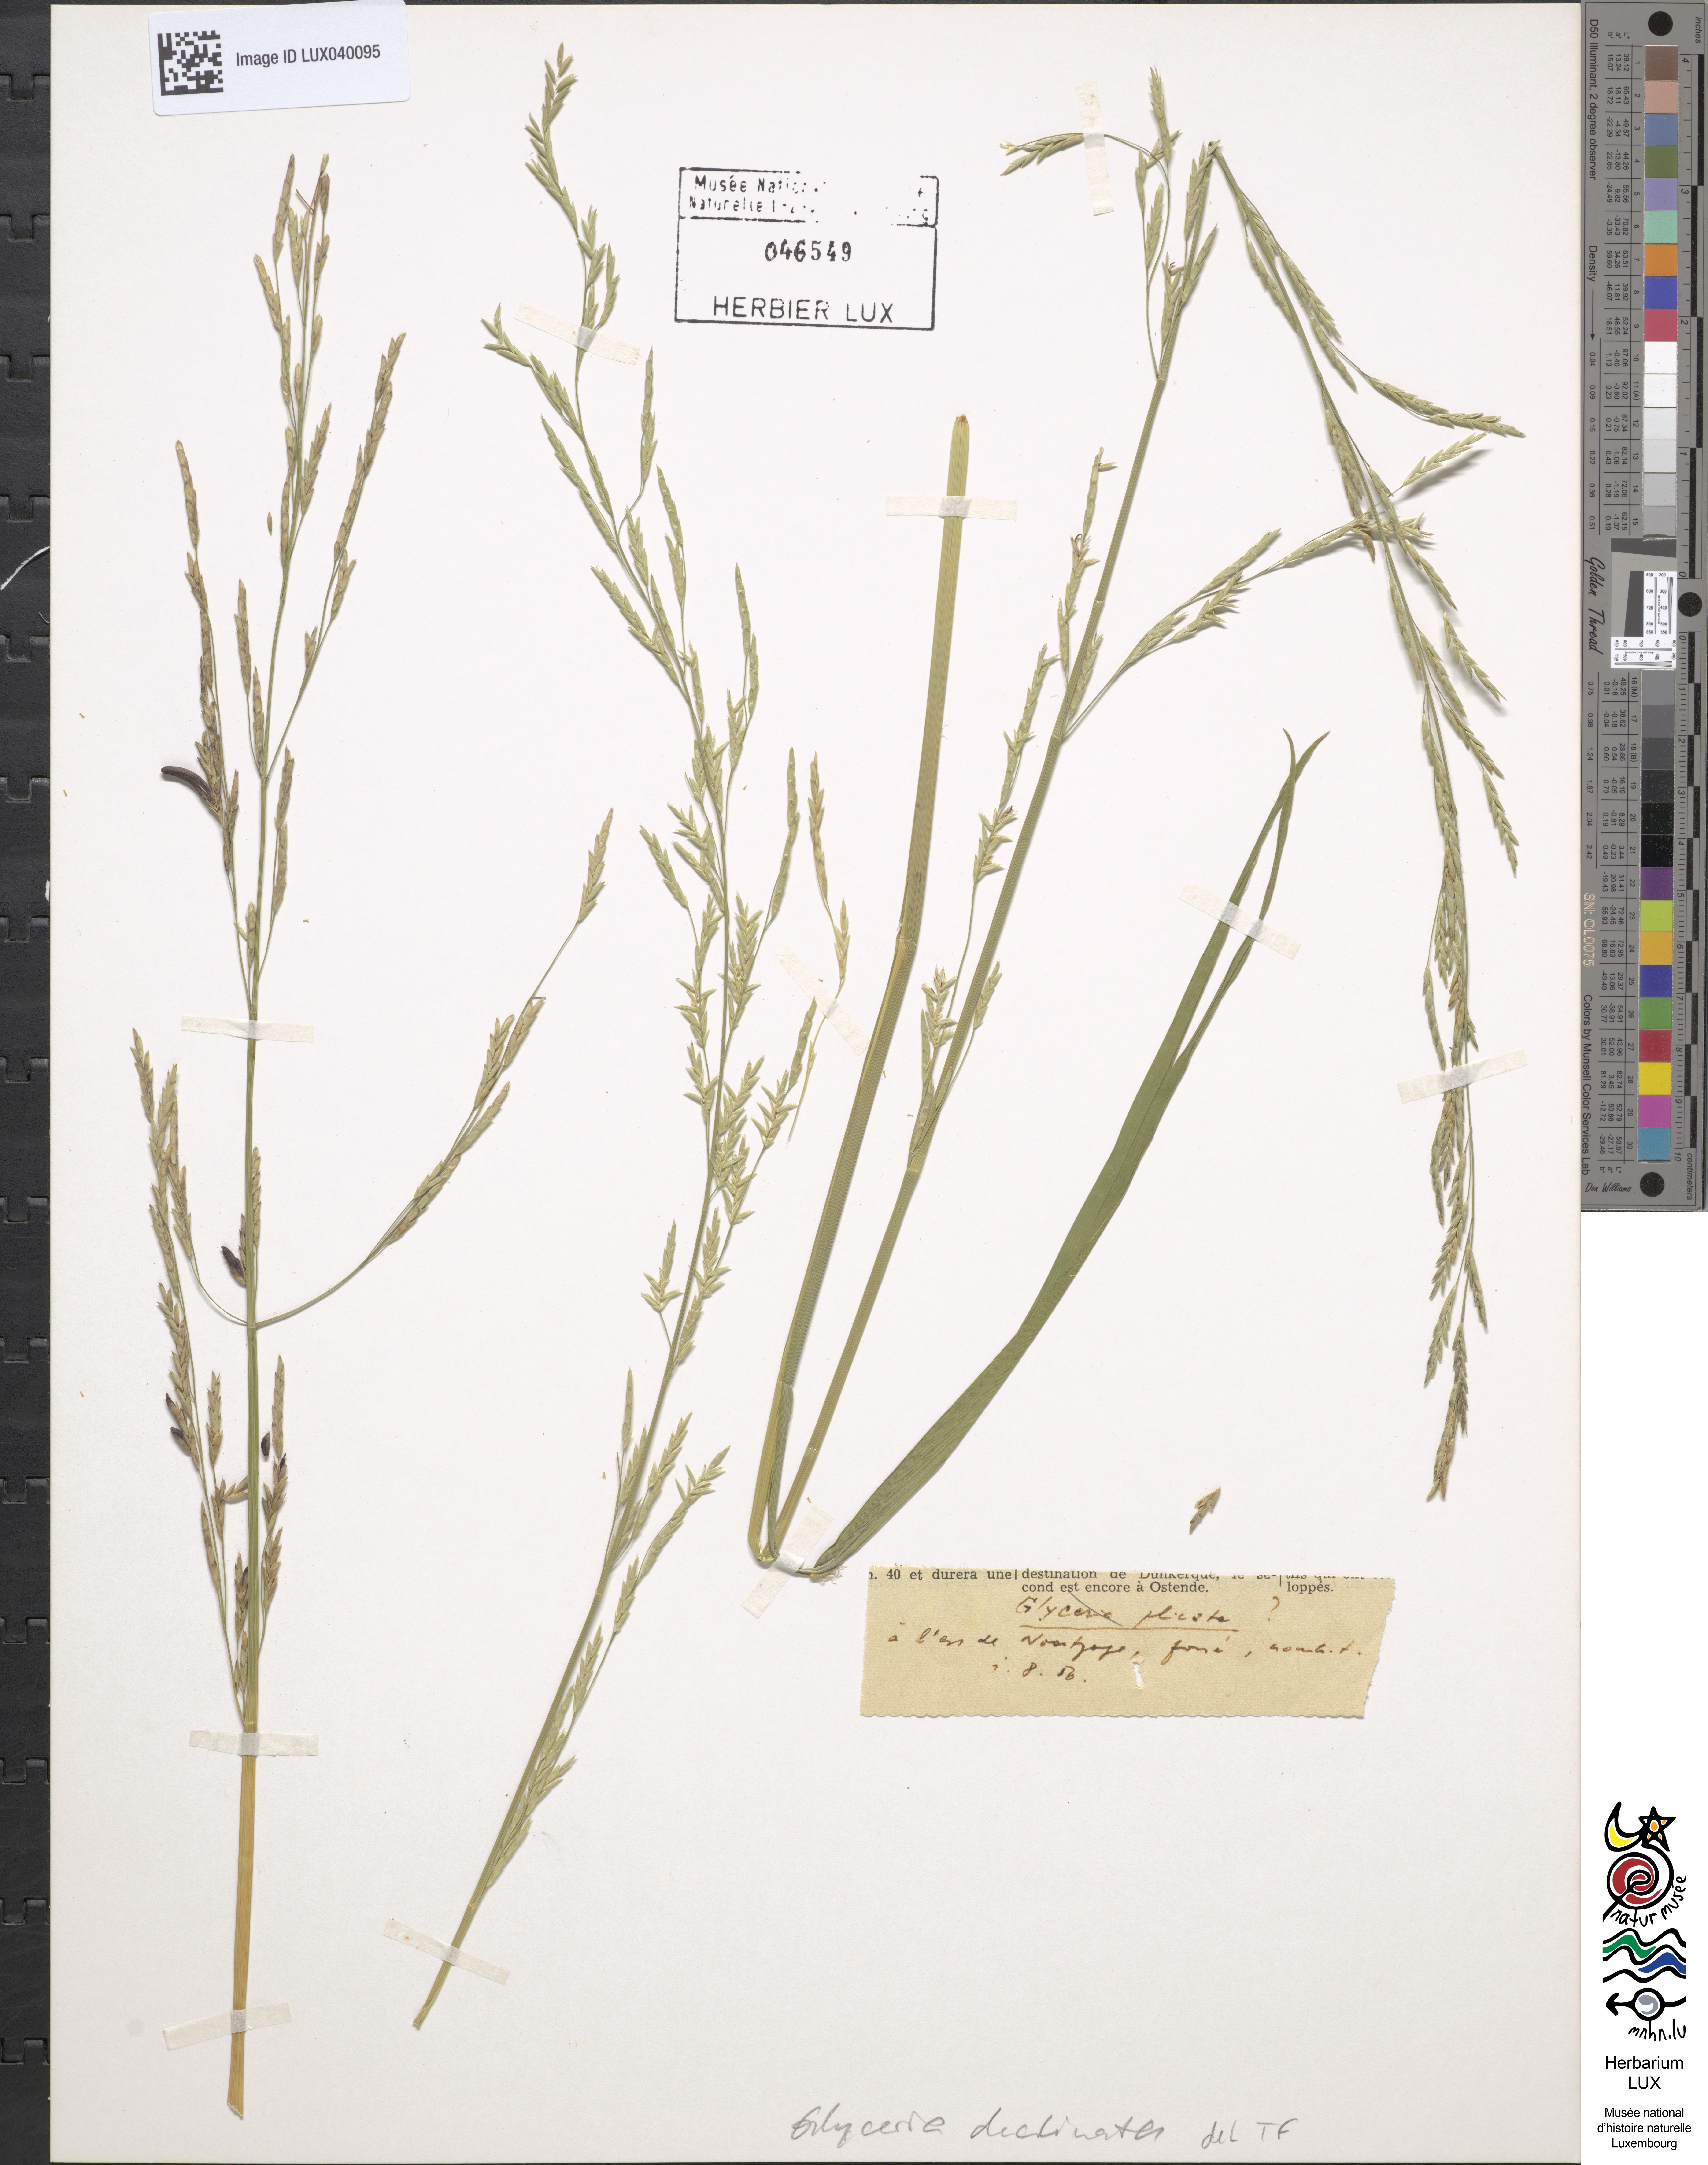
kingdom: Plantae
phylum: Tracheophyta
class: Liliopsida
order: Poales
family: Poaceae
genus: Glyceria
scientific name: Glyceria declinata
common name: Small sweet-grass
